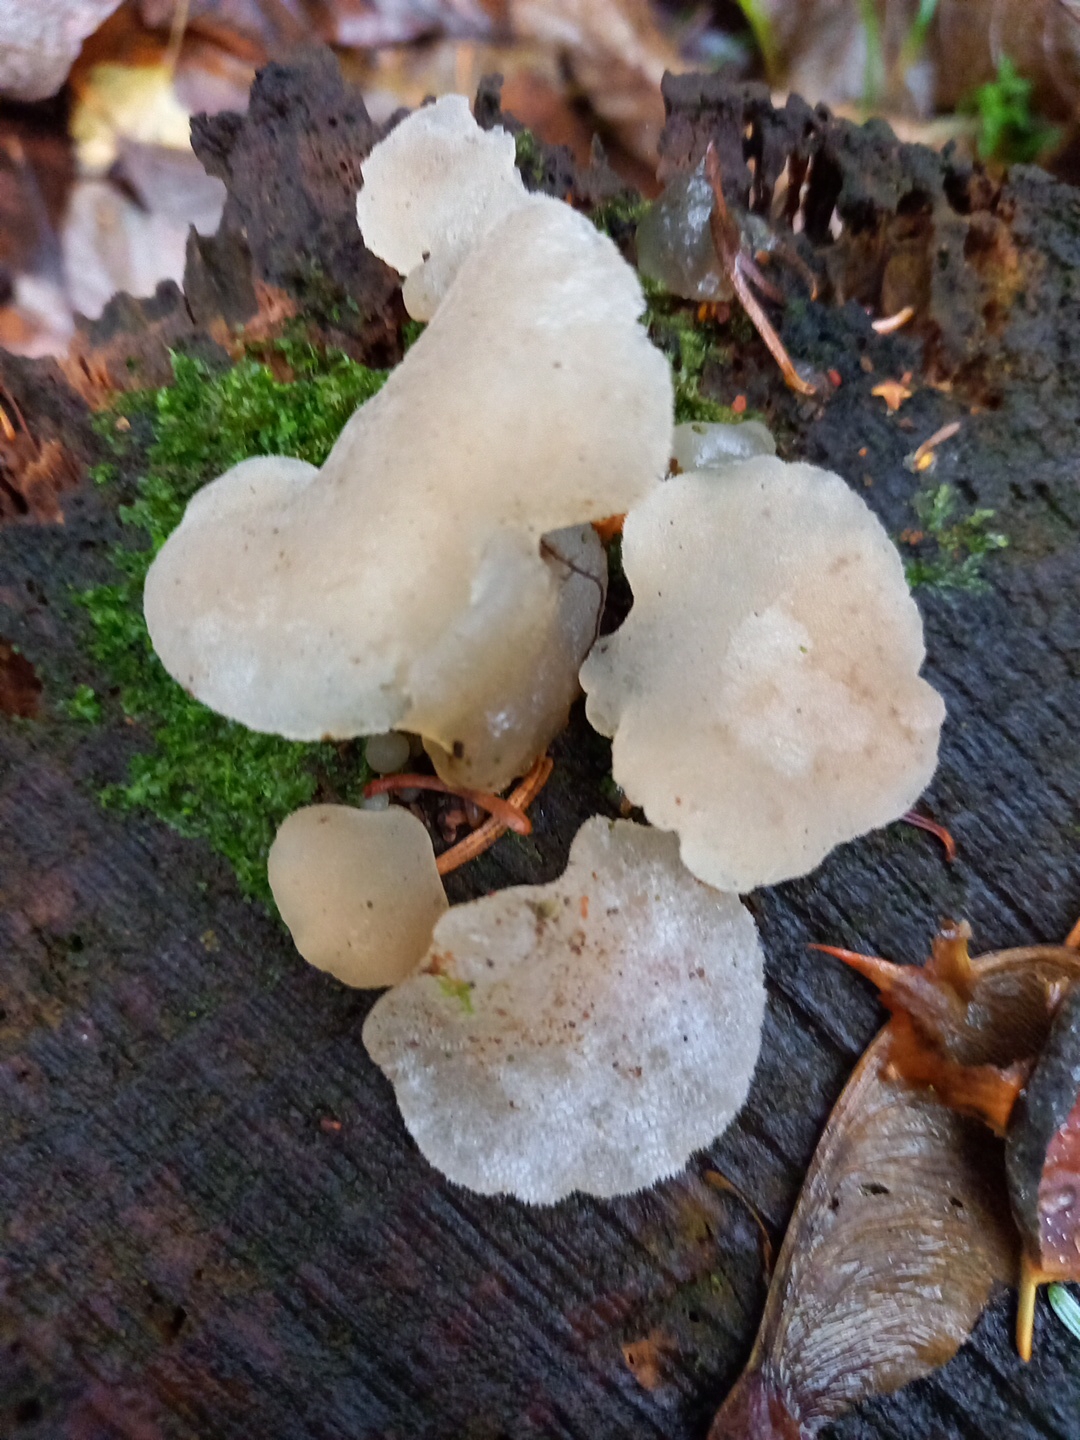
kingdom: Fungi
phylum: Basidiomycota
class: Agaricomycetes
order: Auriculariales
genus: Pseudohydnum
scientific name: Pseudohydnum gelatinosum
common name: bævretand
